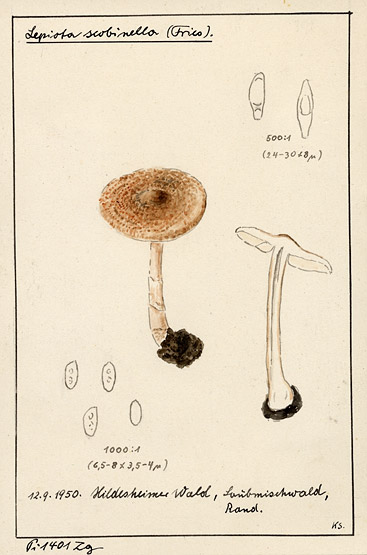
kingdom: Fungi
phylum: Basidiomycota
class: Agaricomycetes
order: Agaricales
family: Agaricaceae
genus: Lepiota
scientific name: Lepiota subincarnata
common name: Fatal dapperling
